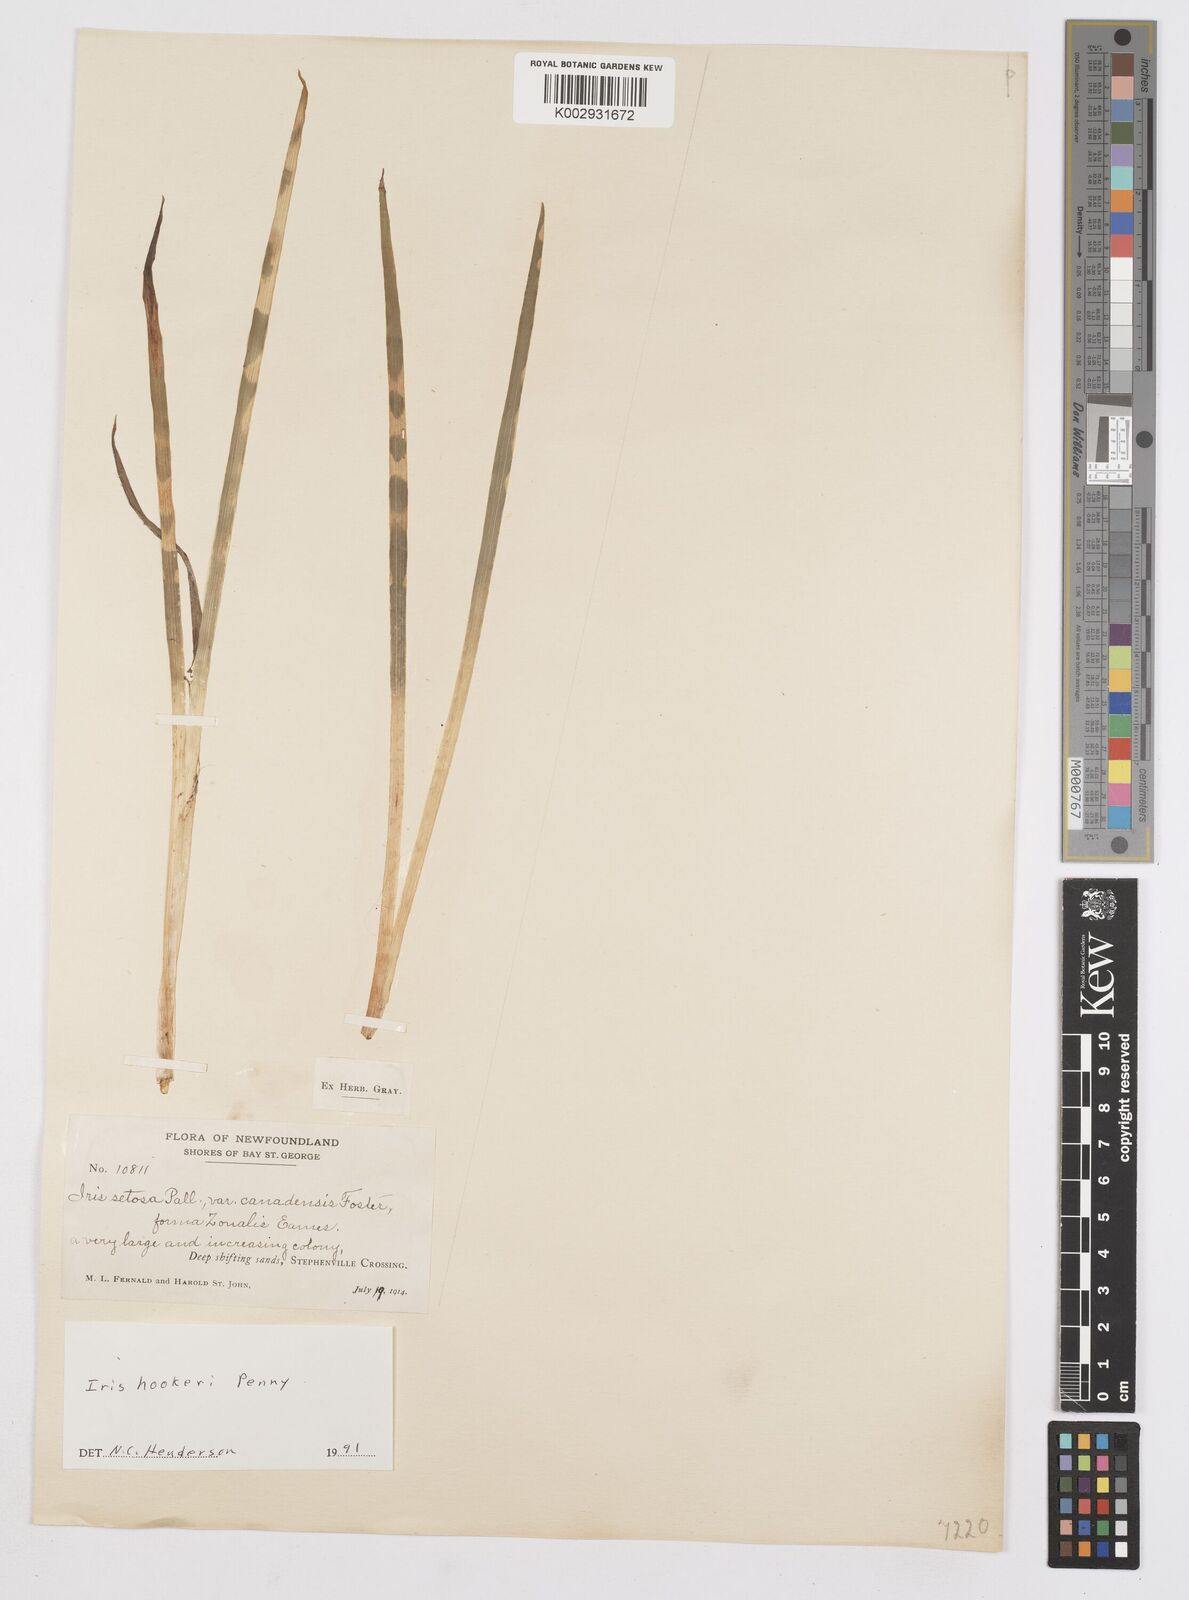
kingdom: Plantae
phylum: Tracheophyta
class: Liliopsida
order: Asparagales
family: Iridaceae
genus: Iris
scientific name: Iris setosa
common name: Arctic blue flag
